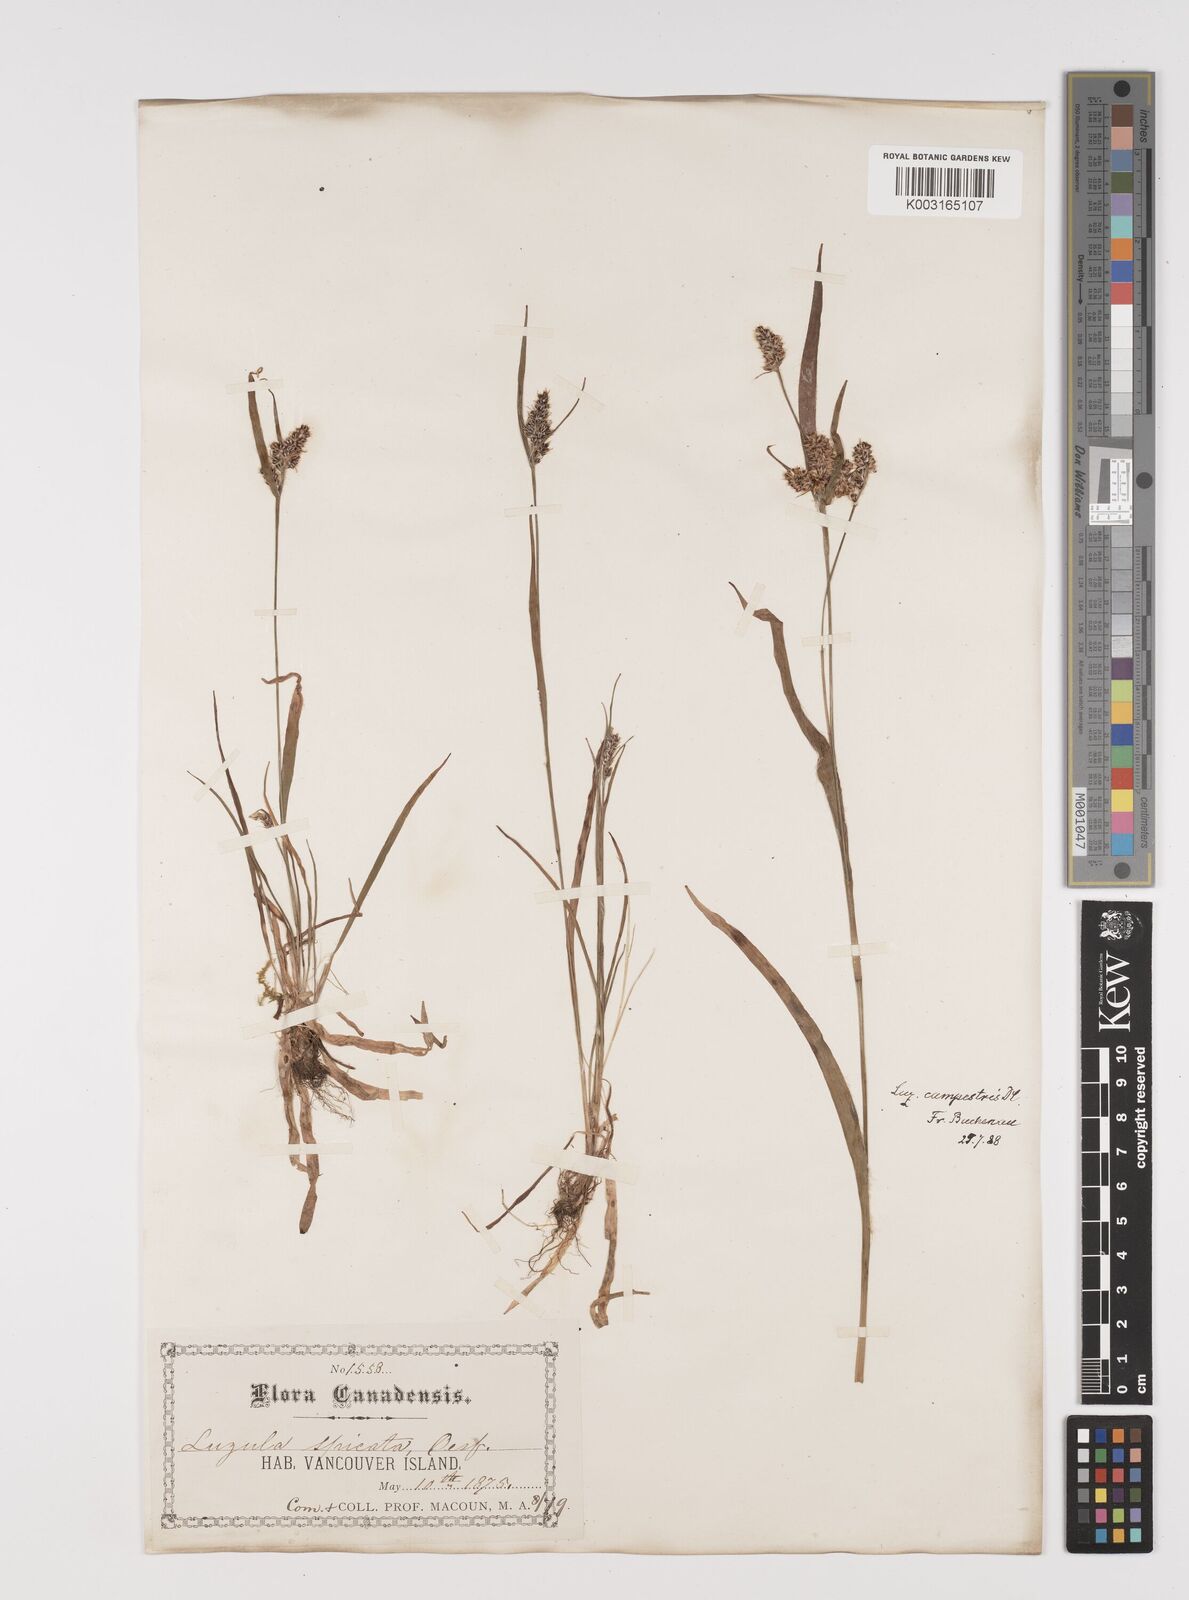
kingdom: Plantae
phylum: Tracheophyta
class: Liliopsida
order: Poales
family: Juncaceae
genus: Luzula
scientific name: Luzula spicata
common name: Spiked wood-rush
